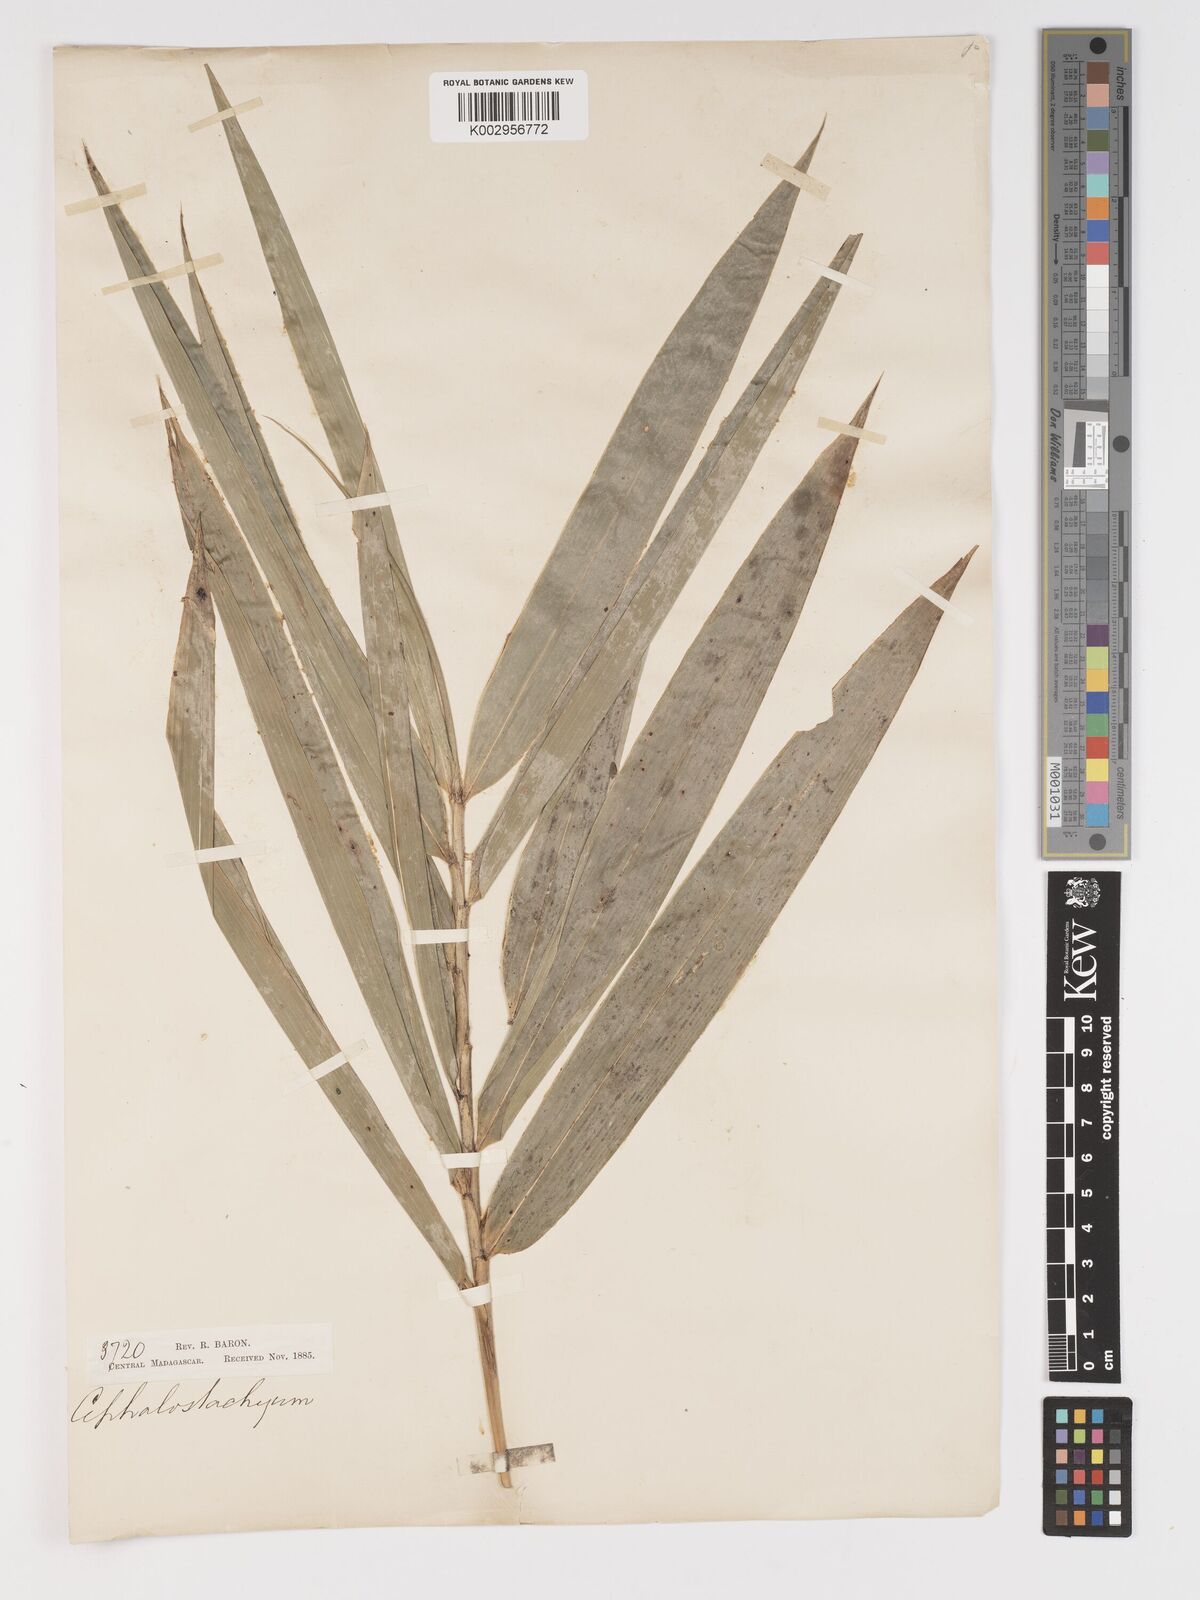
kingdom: Plantae
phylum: Tracheophyta
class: Liliopsida
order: Poales
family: Poaceae
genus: Sokinochloa
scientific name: Sokinochloa
